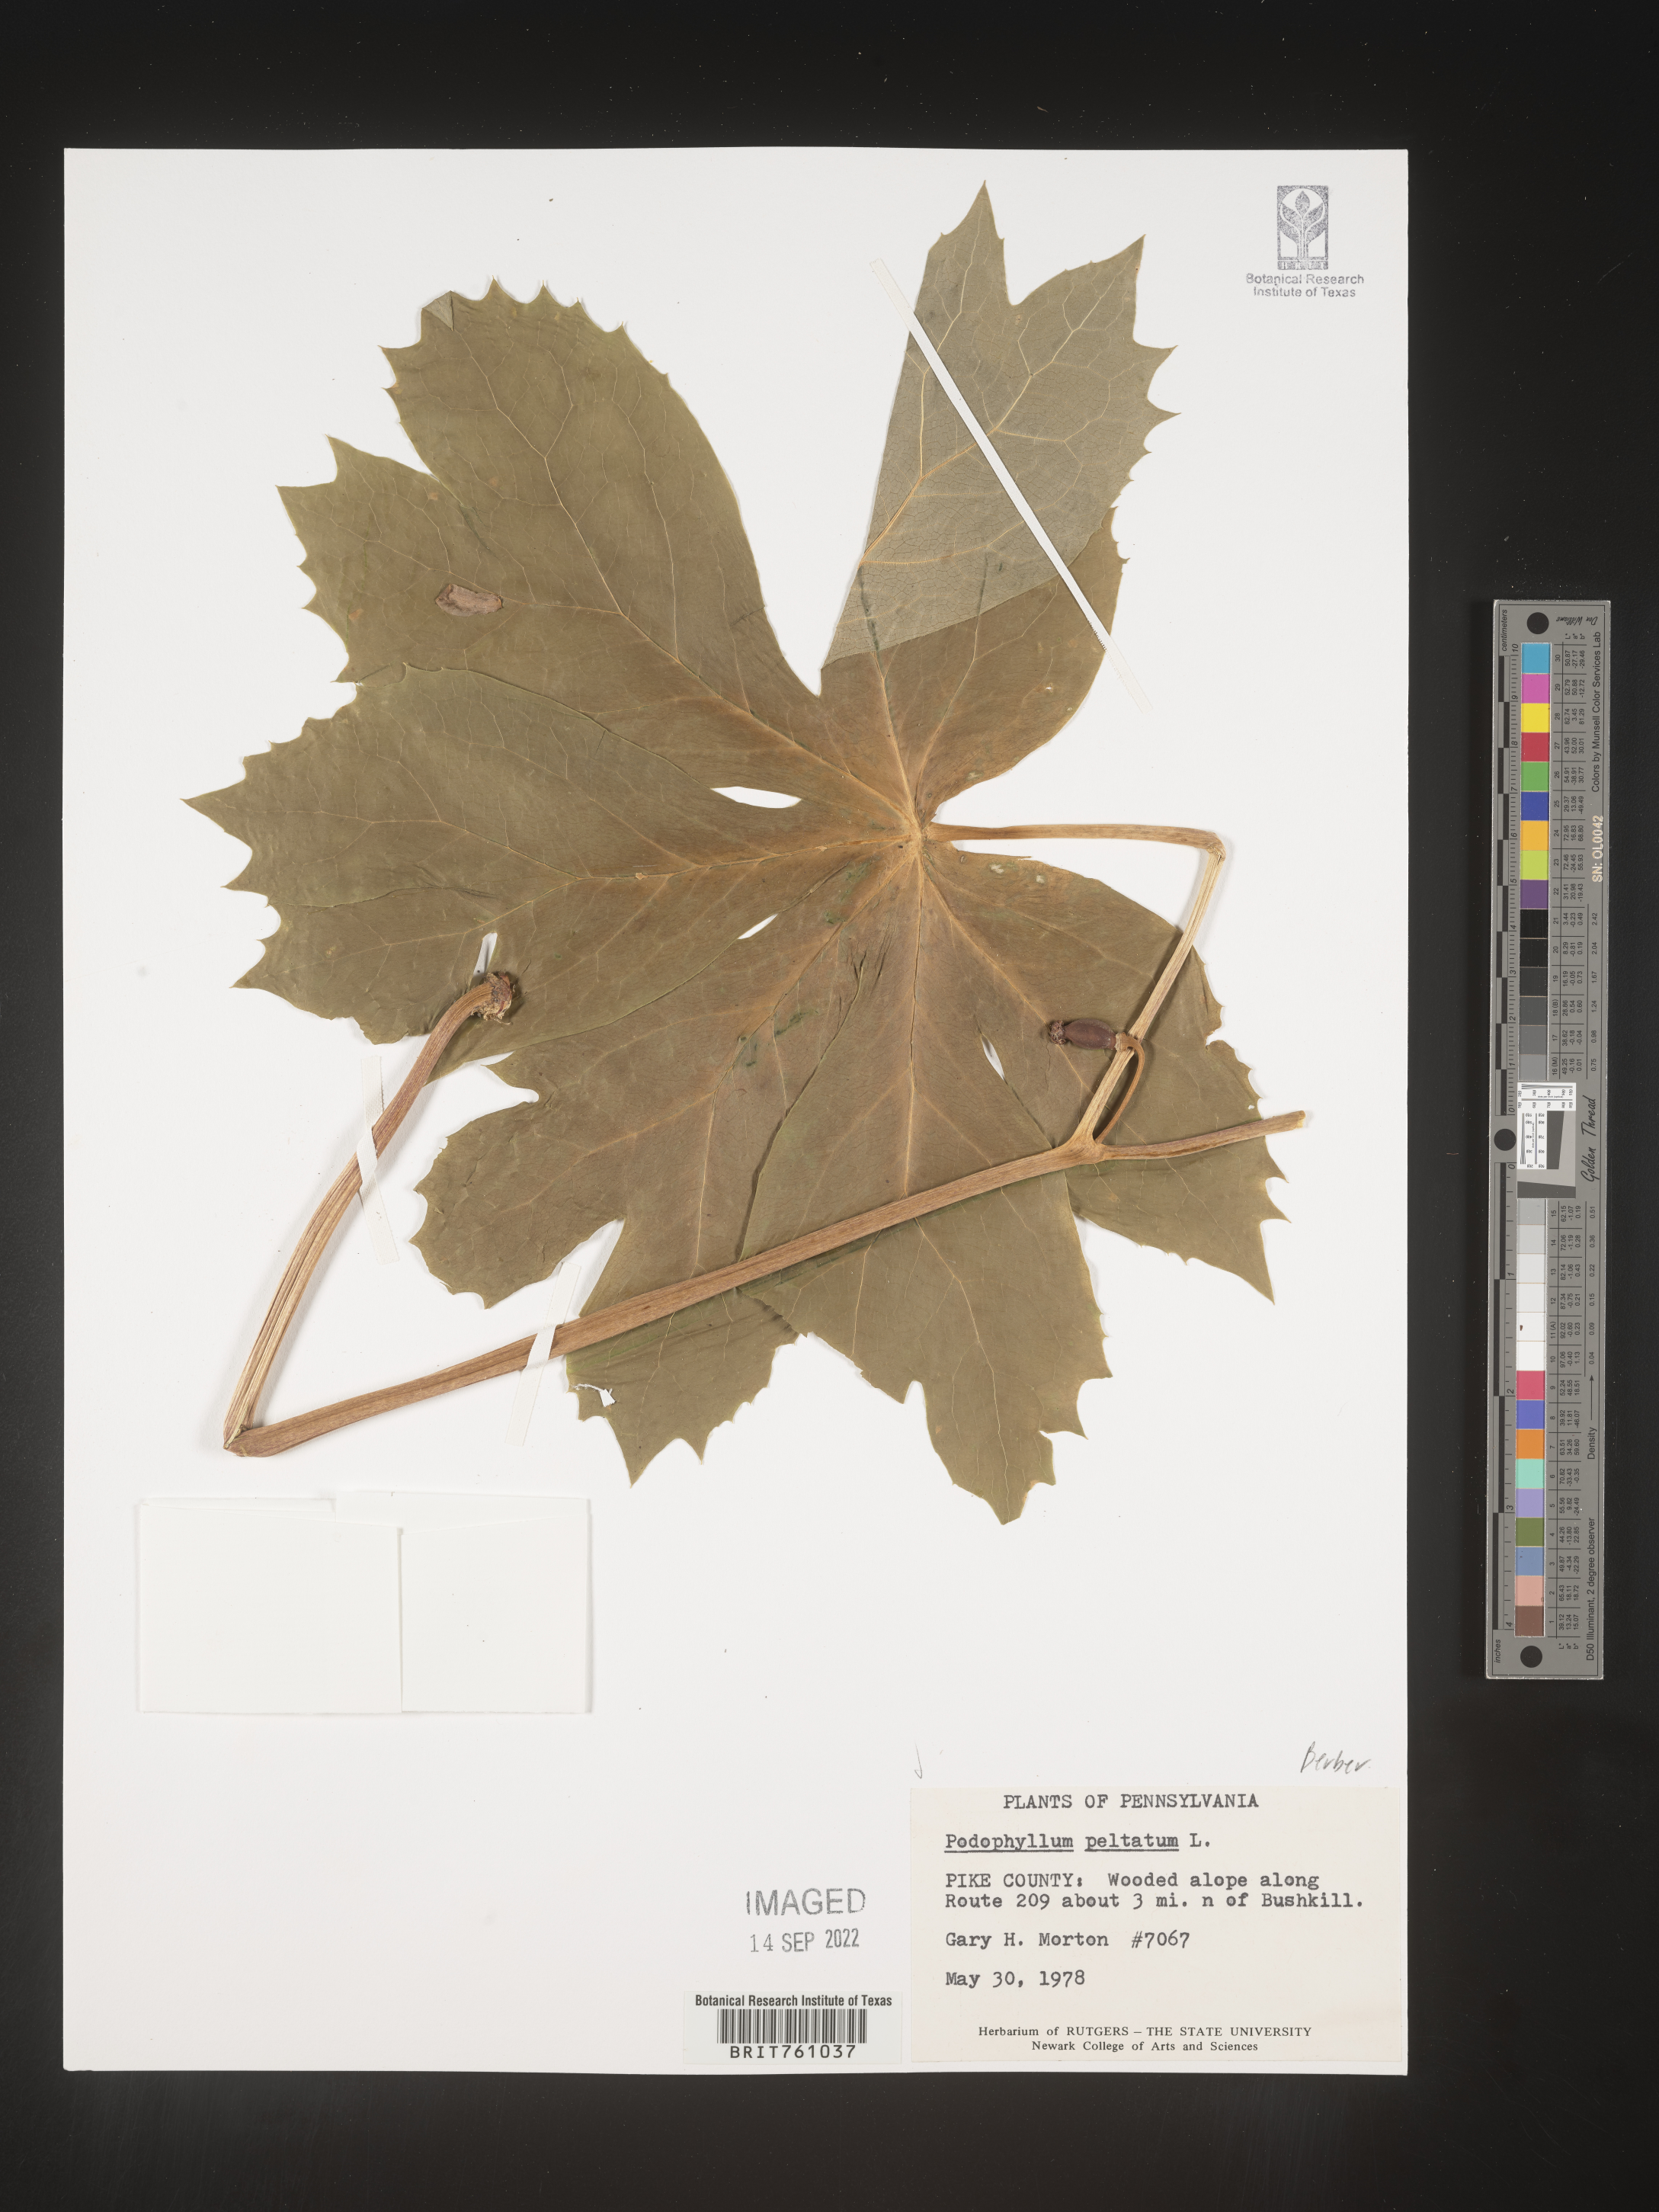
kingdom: Plantae
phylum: Tracheophyta
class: Magnoliopsida
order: Ranunculales
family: Berberidaceae
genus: Podophyllum
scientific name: Podophyllum peltatum
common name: Wild mandrake
